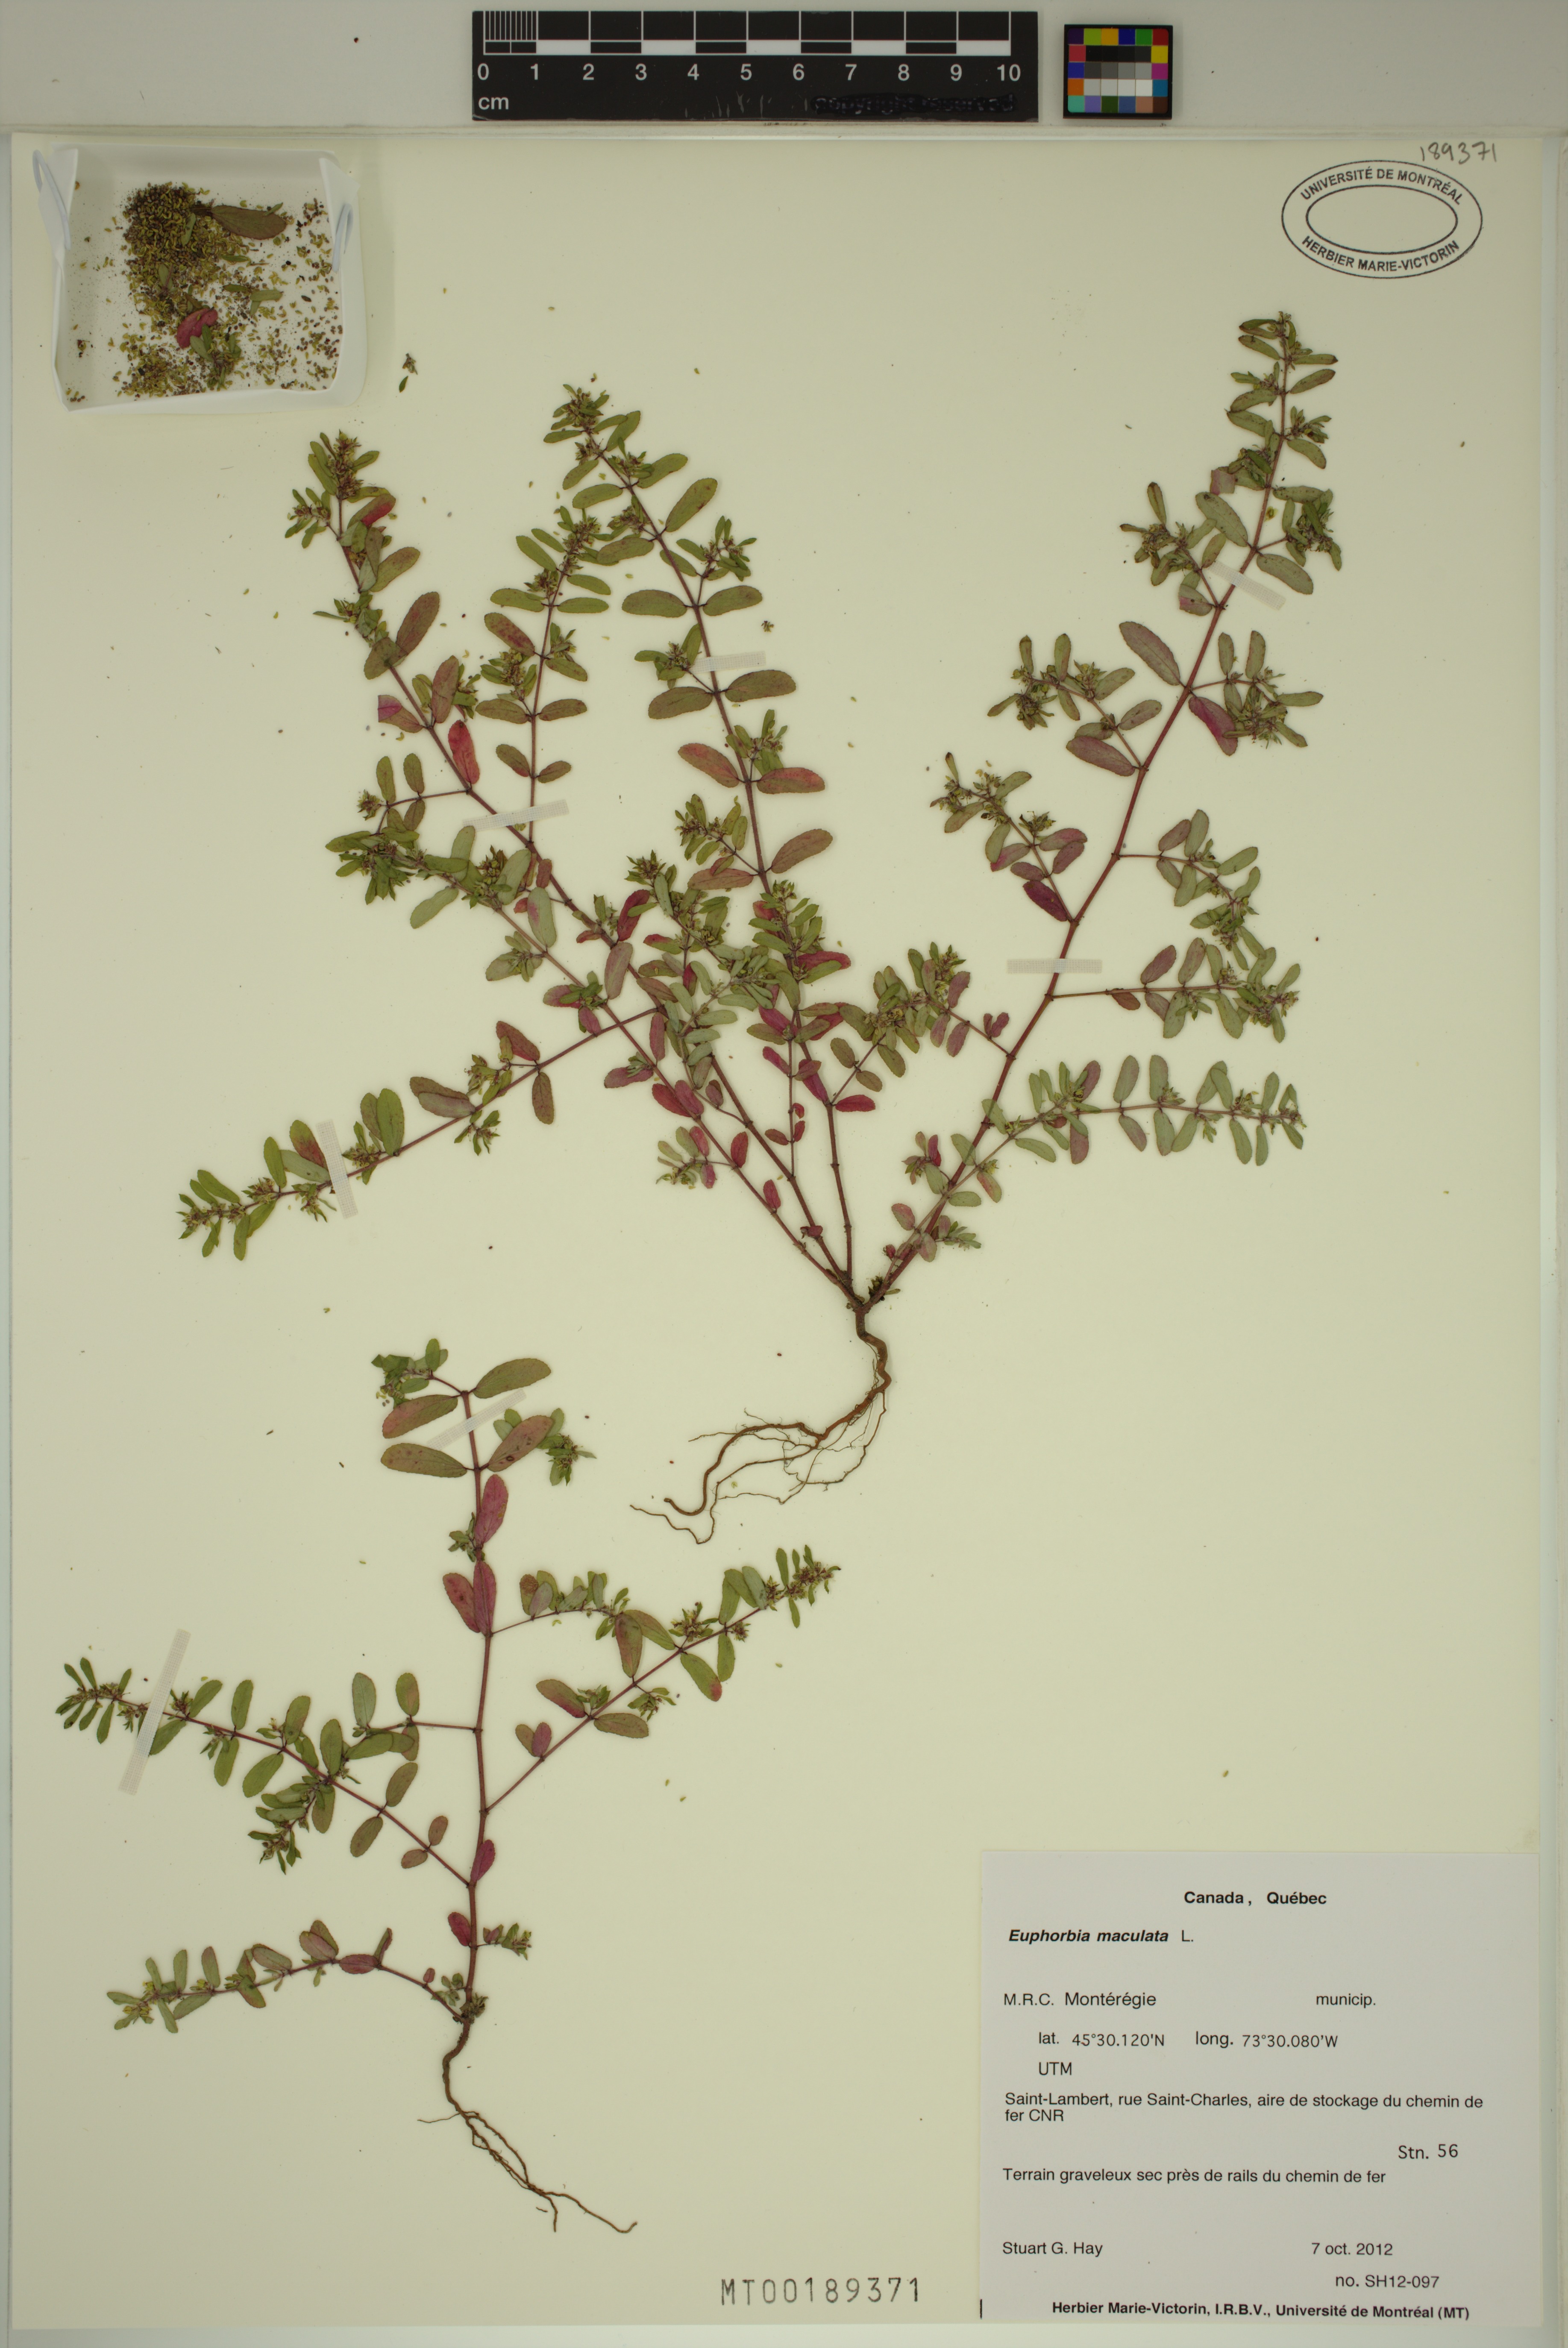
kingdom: Plantae
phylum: Tracheophyta
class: Magnoliopsida
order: Malpighiales
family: Euphorbiaceae
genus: Euphorbia
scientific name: Euphorbia maculata
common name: Spotted spurge
